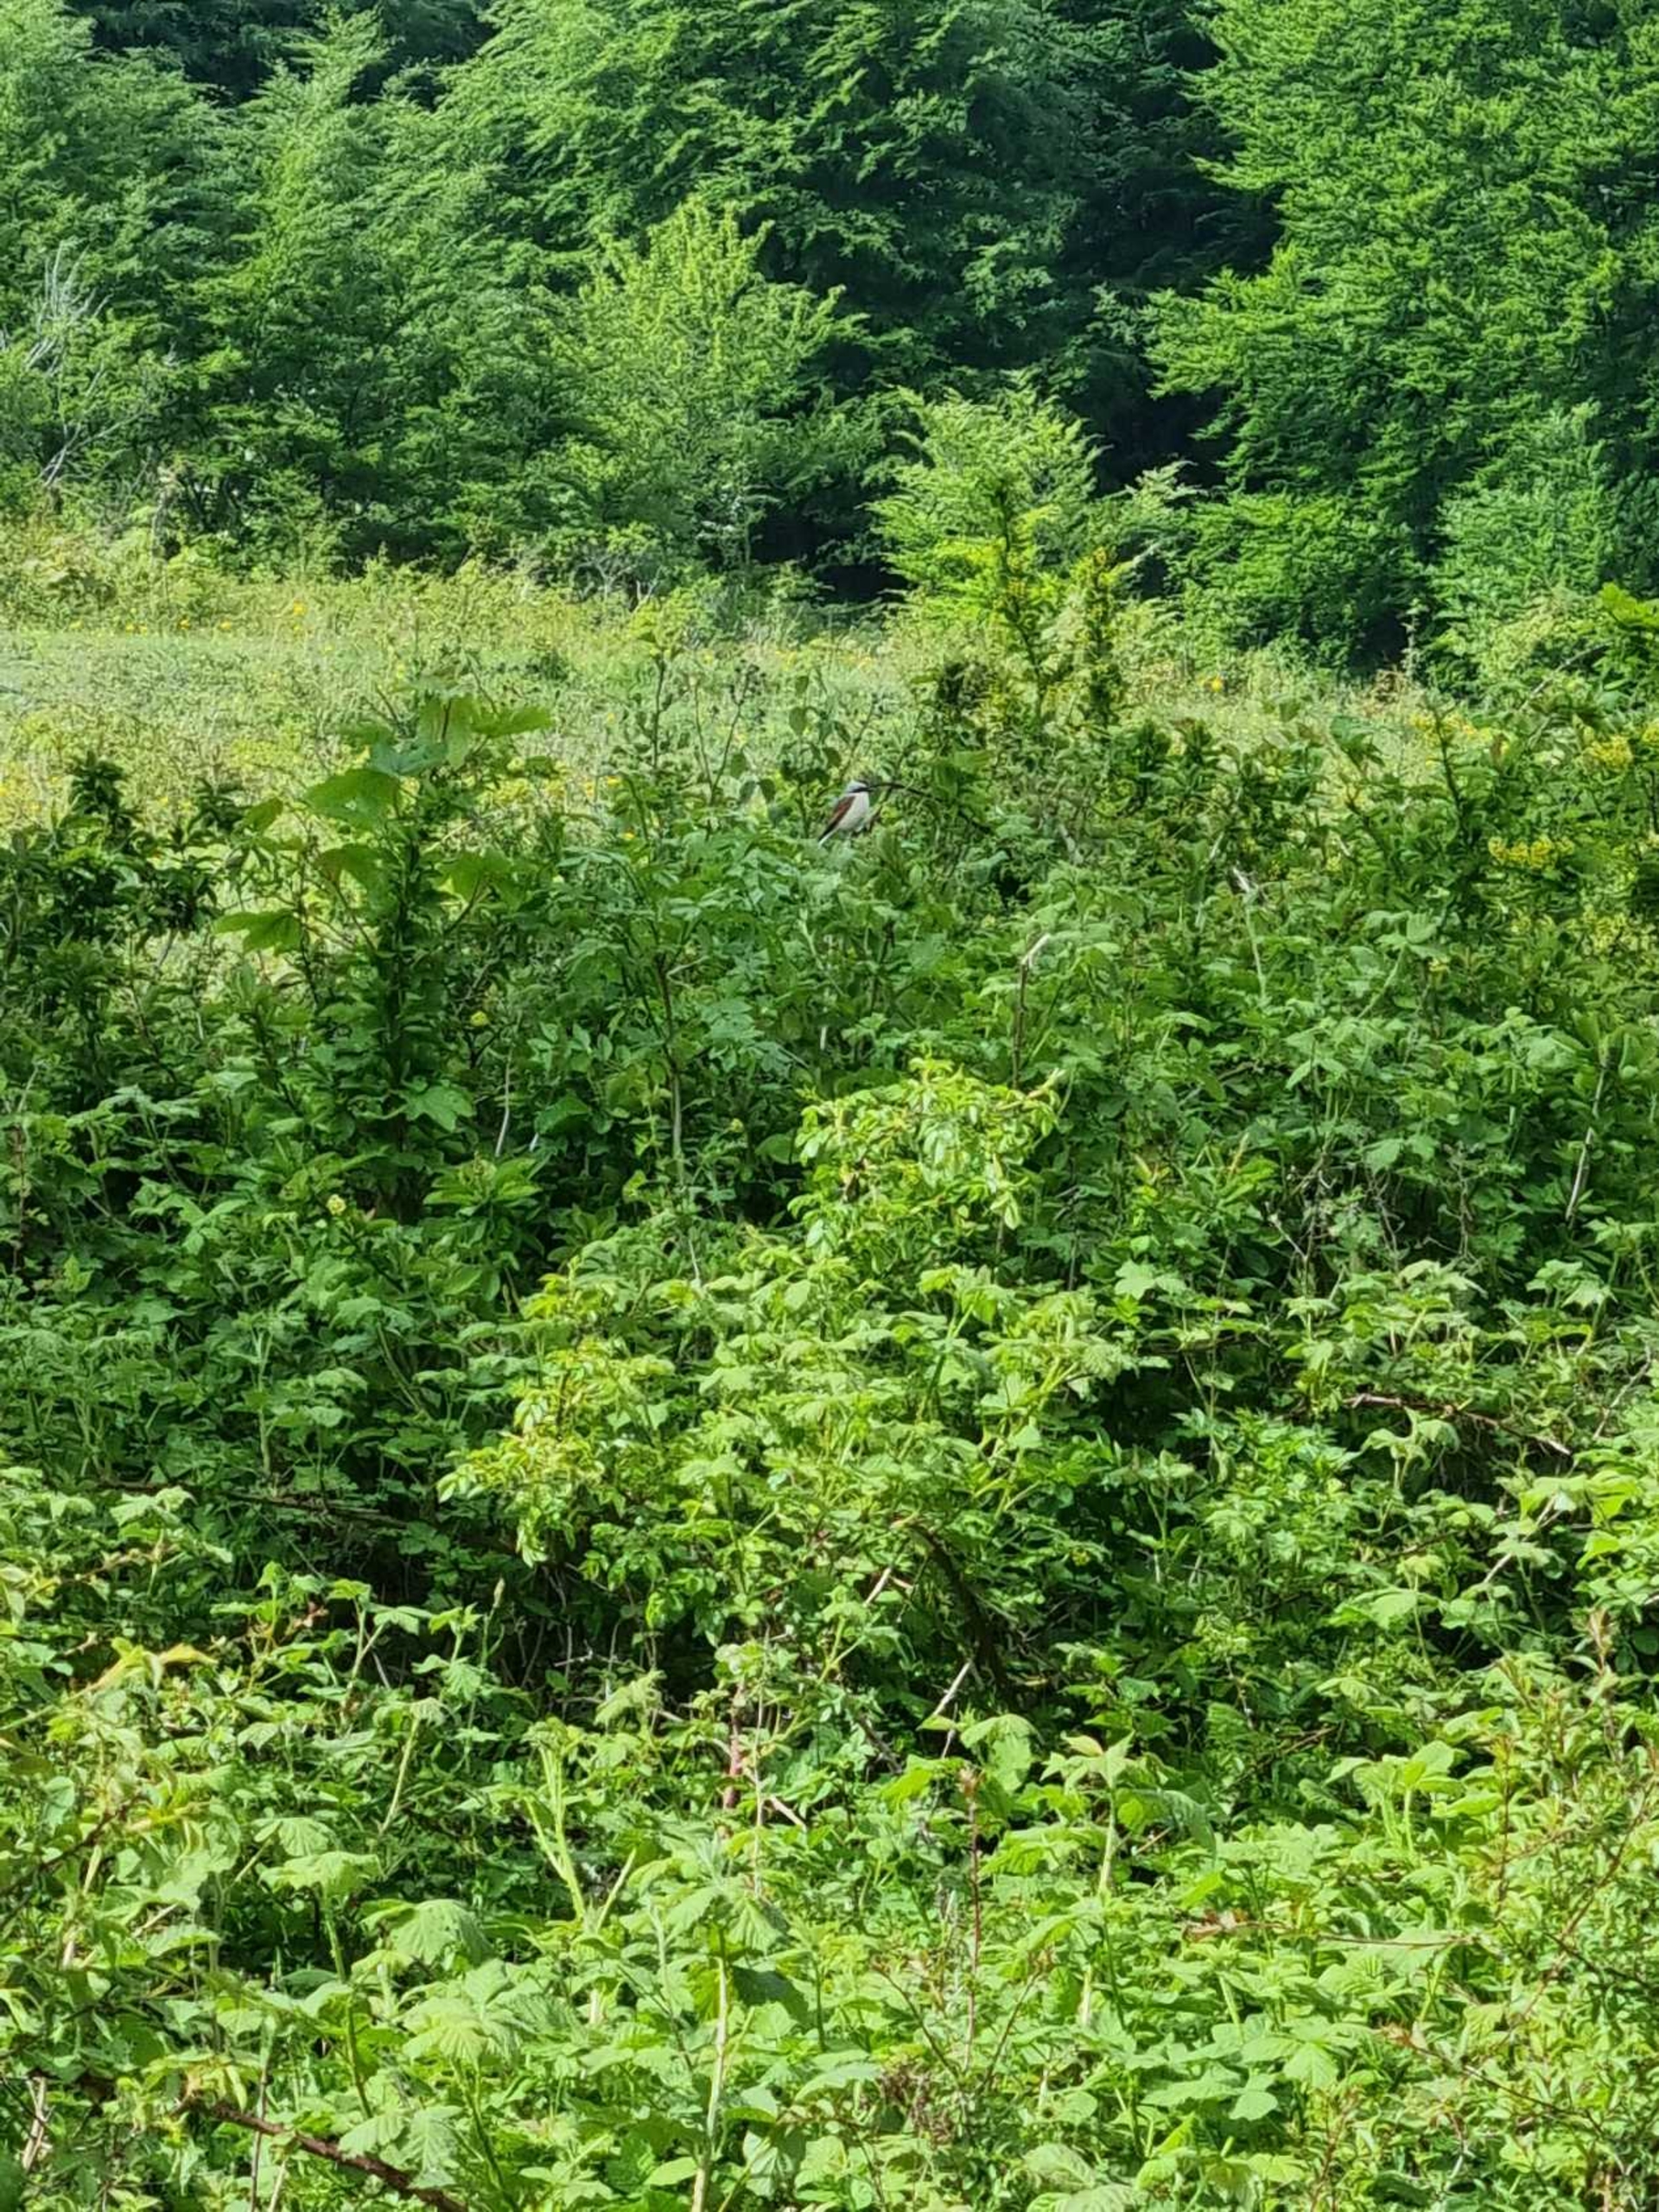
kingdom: Animalia
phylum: Chordata
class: Aves
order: Passeriformes
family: Laniidae
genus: Lanius
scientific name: Lanius collurio
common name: Rødrygget tornskade
